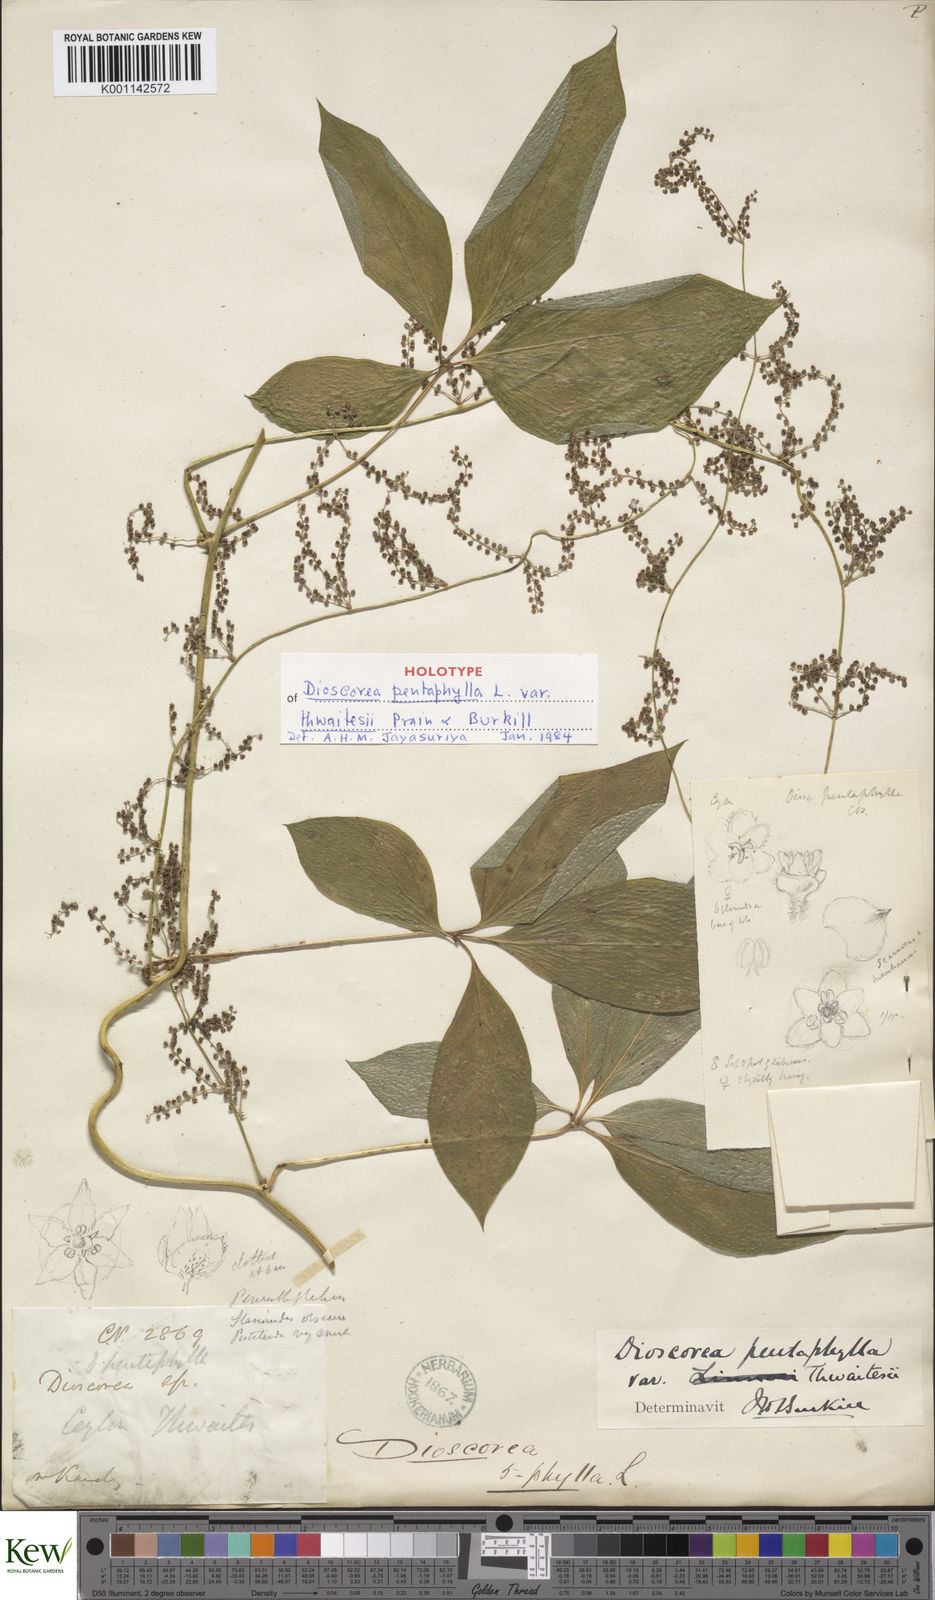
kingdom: Plantae
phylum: Tracheophyta
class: Liliopsida
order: Dioscoreales
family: Dioscoreaceae
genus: Dioscorea
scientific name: Dioscorea pentaphylla
